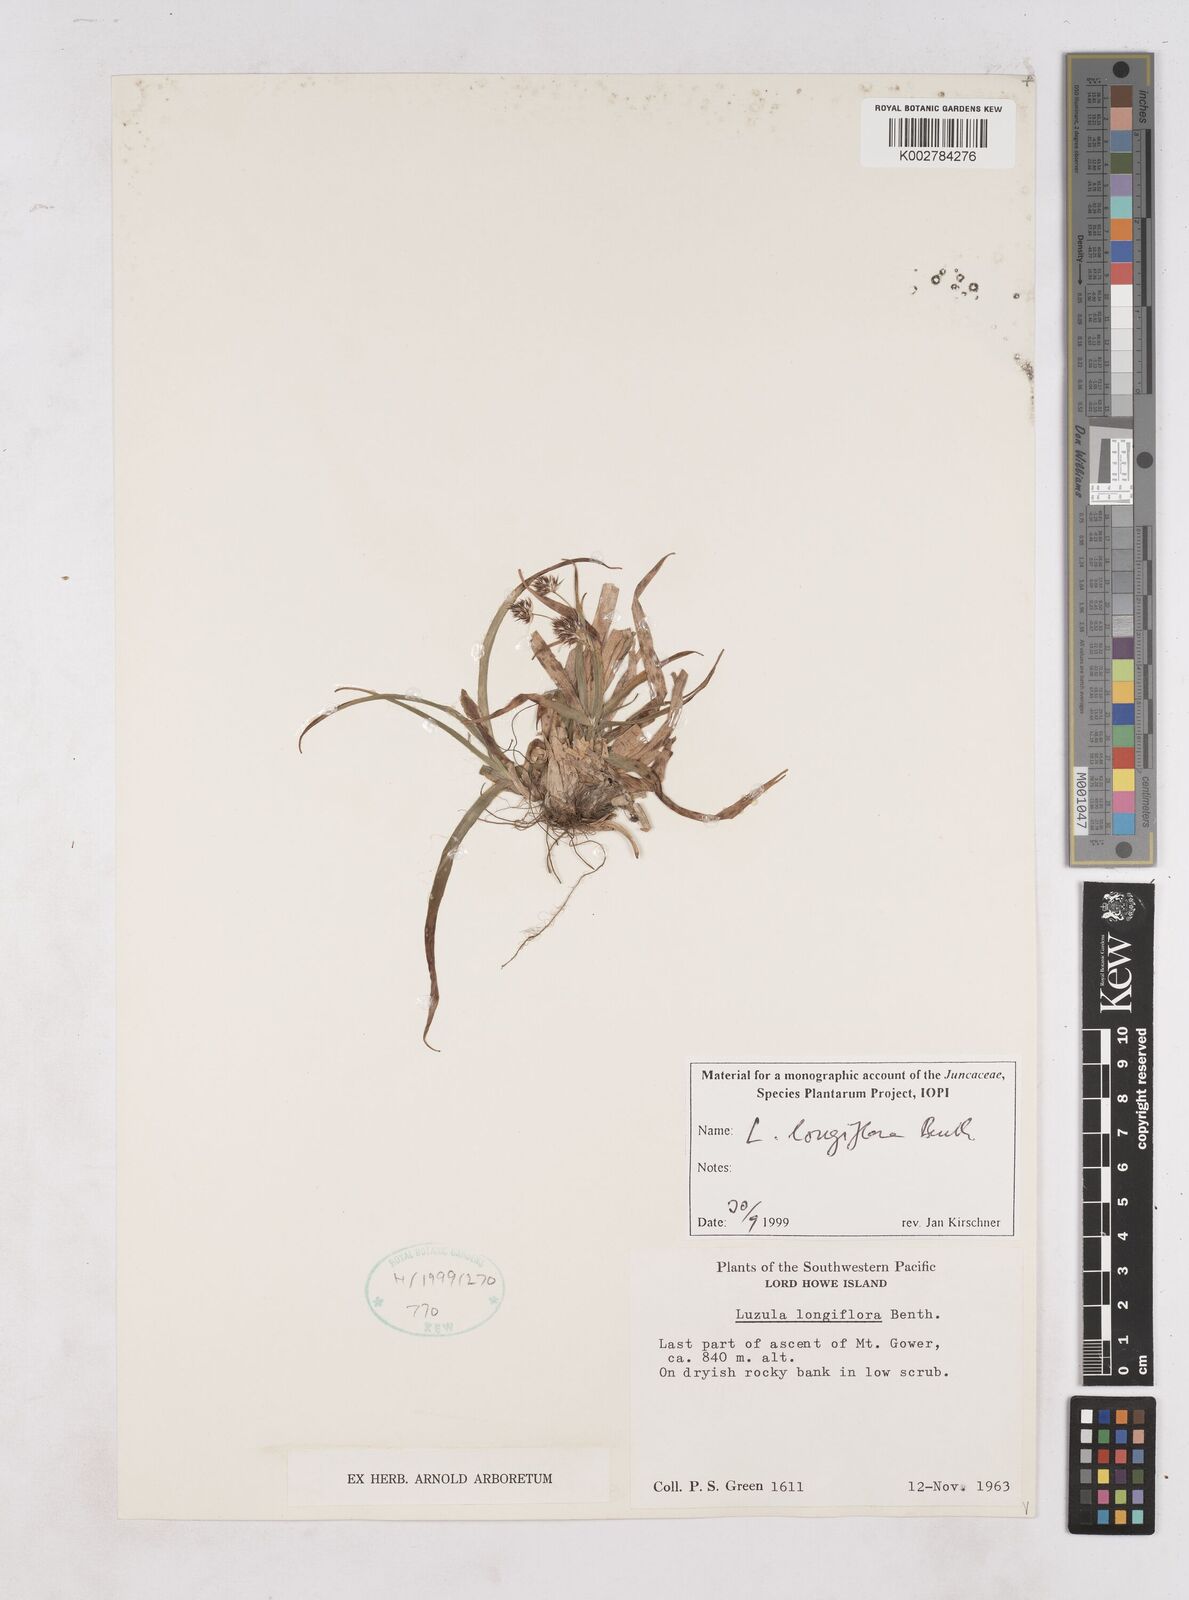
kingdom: Plantae
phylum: Tracheophyta
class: Liliopsida
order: Poales
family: Juncaceae
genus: Luzula
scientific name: Luzula longiflora
